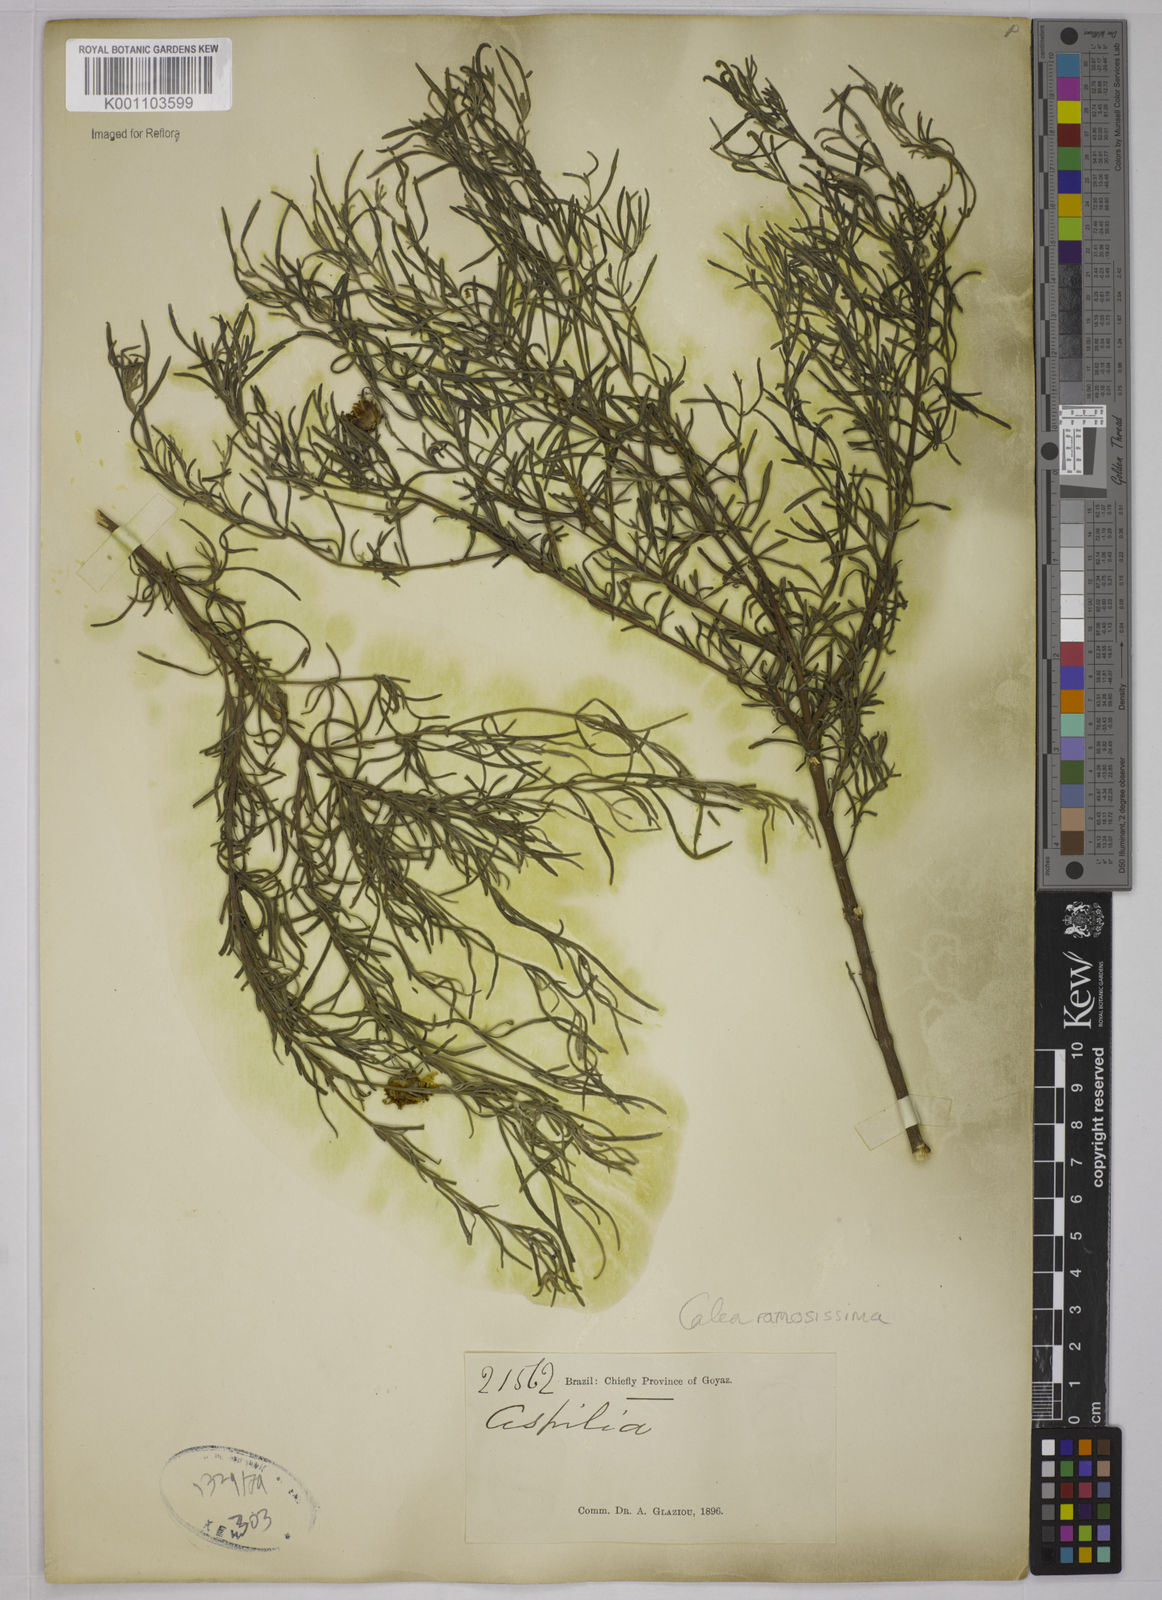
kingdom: Plantae
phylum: Tracheophyta
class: Magnoliopsida
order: Asterales
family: Asteraceae
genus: Calea
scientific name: Calea ramosissima
